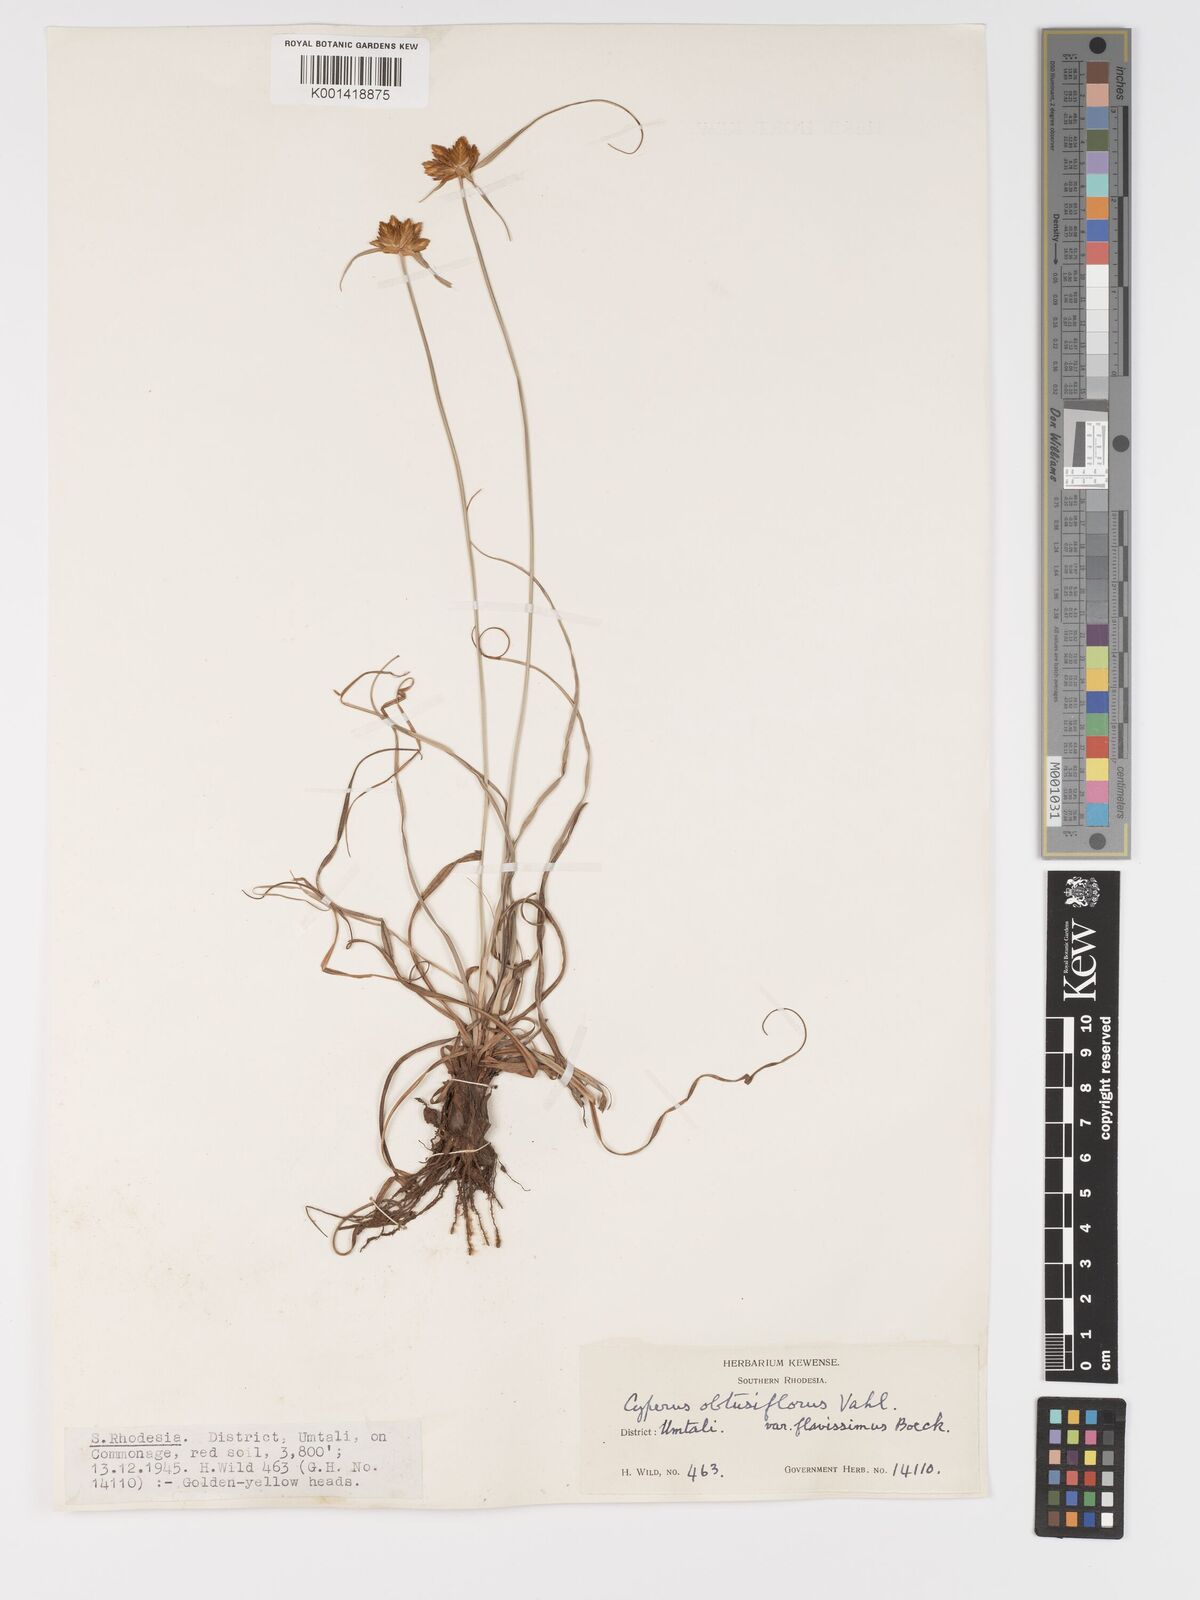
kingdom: Plantae
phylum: Tracheophyta
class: Liliopsida
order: Poales
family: Cyperaceae
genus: Cyperus
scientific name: Cyperus sphaerocephalus
